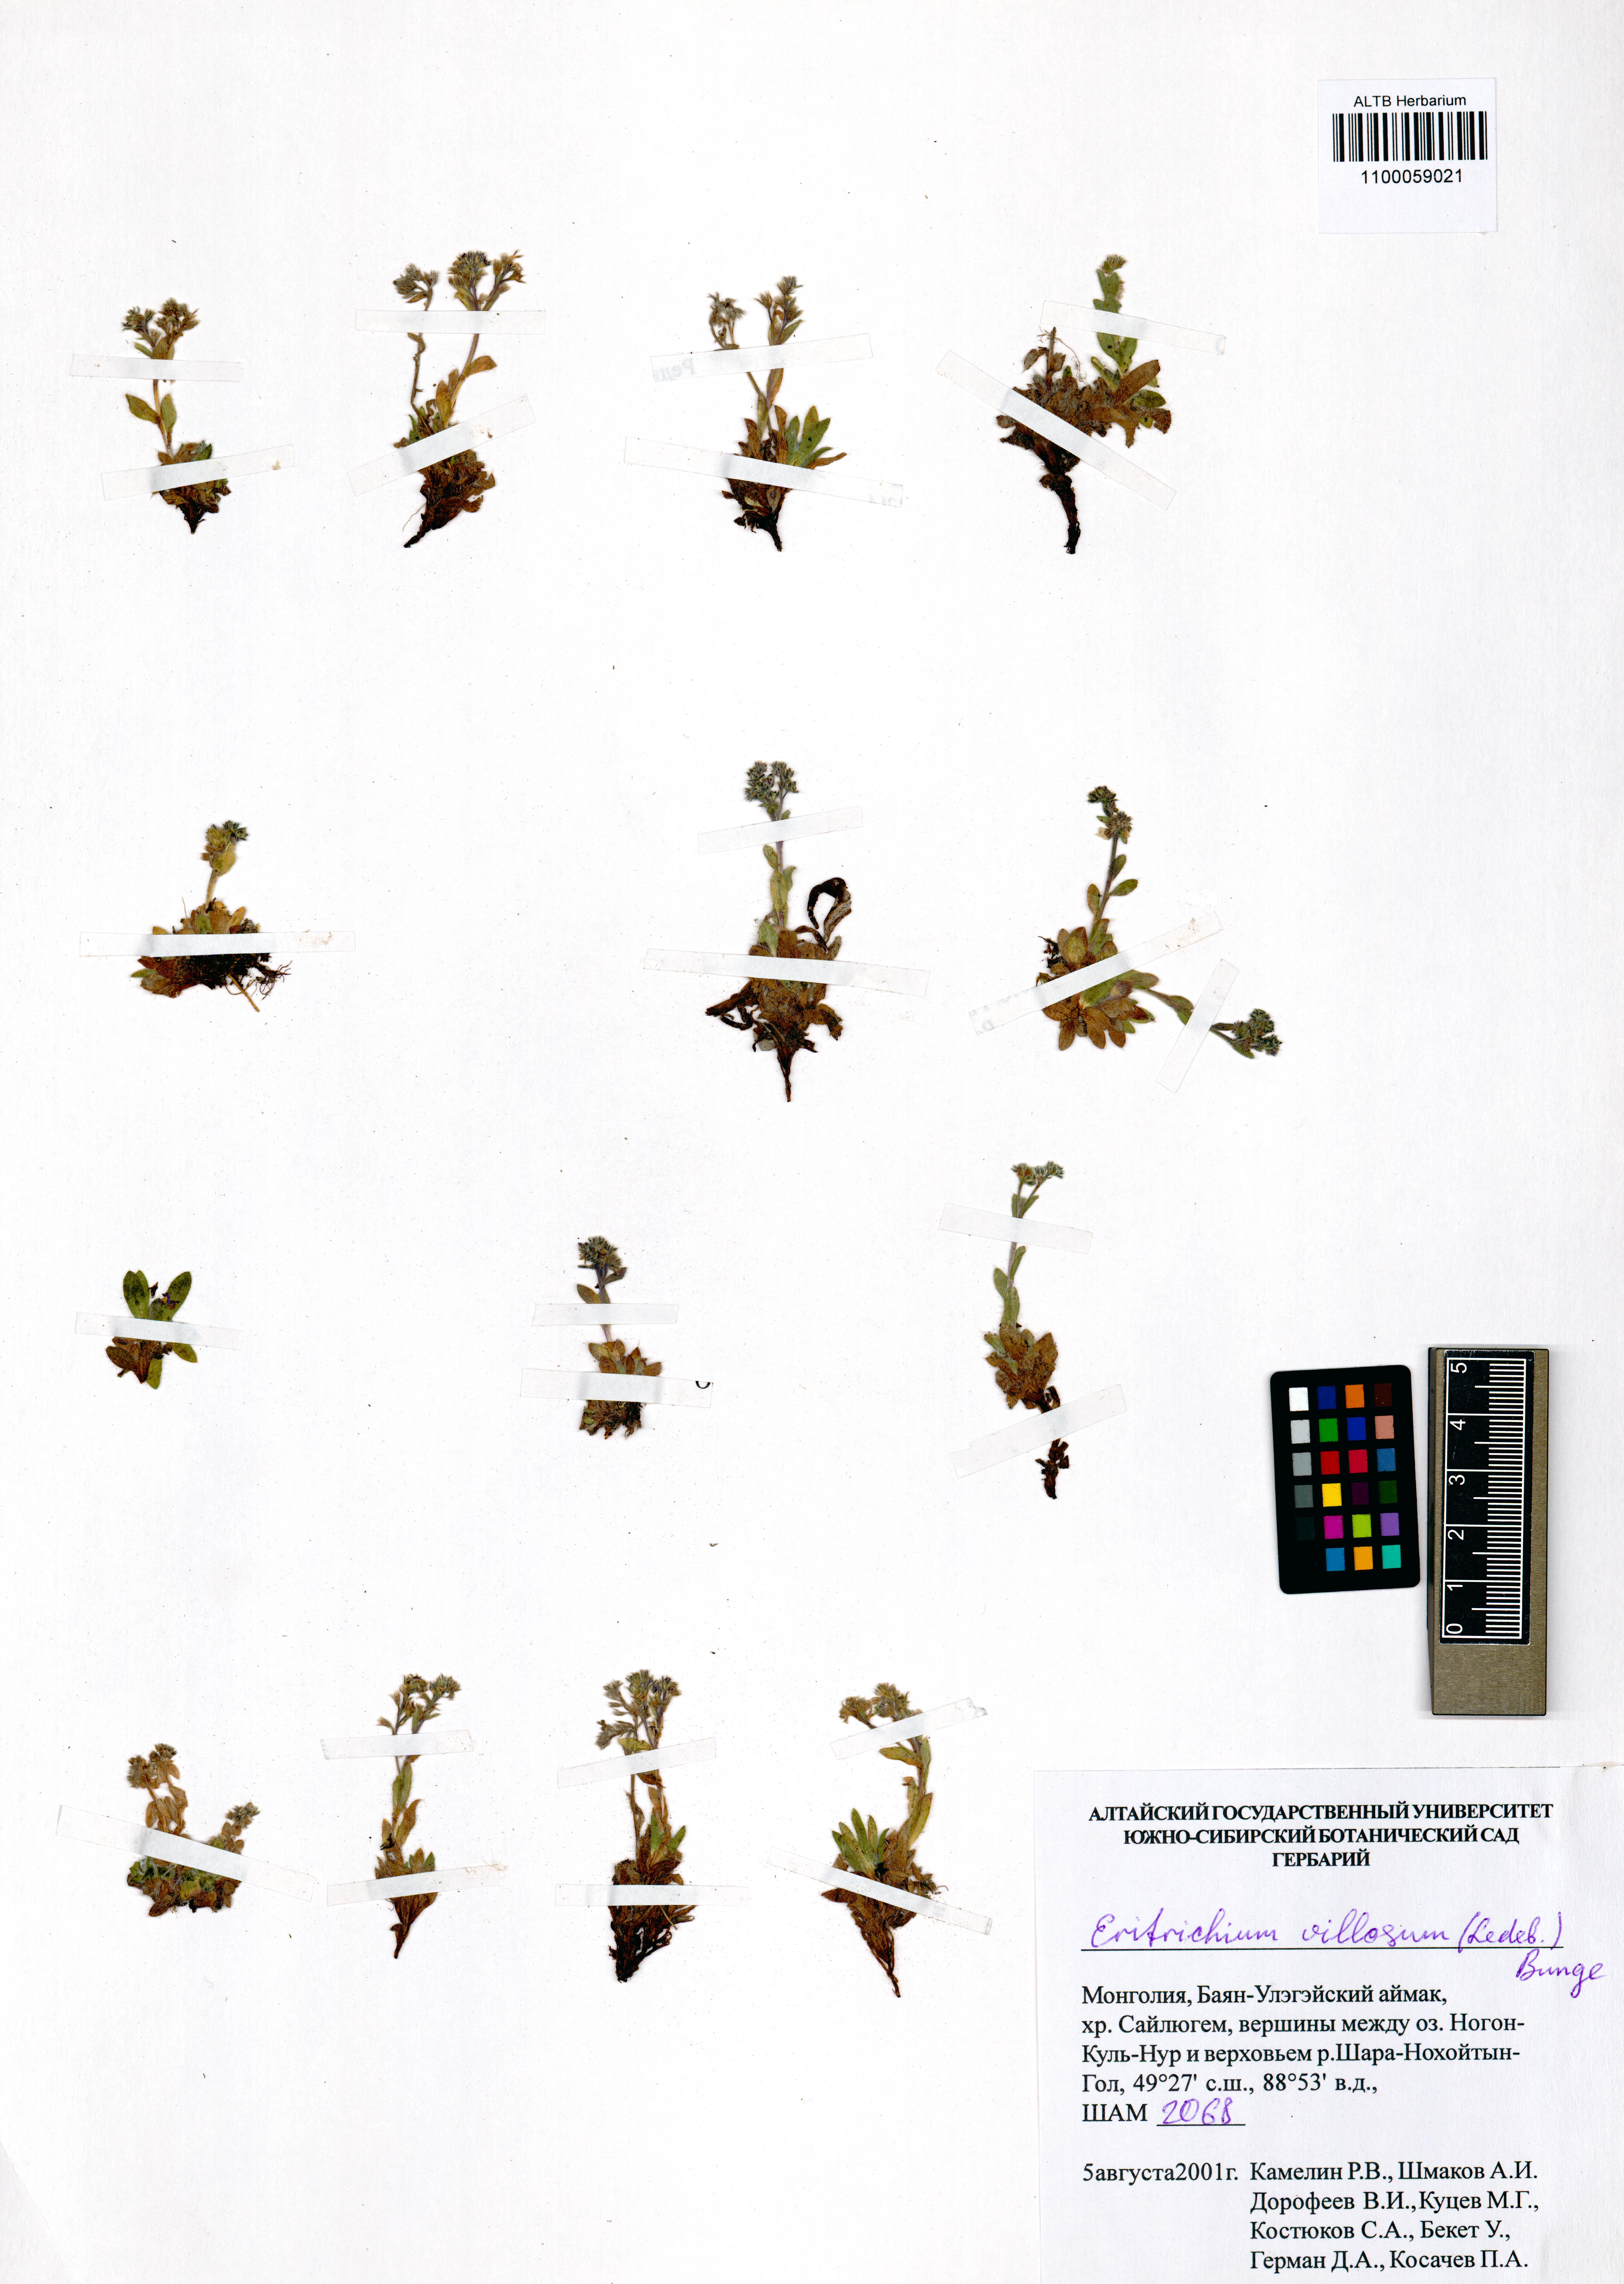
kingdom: Plantae
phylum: Tracheophyta
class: Magnoliopsida
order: Boraginales
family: Boraginaceae
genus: Eritrichium
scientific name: Eritrichium villosum
